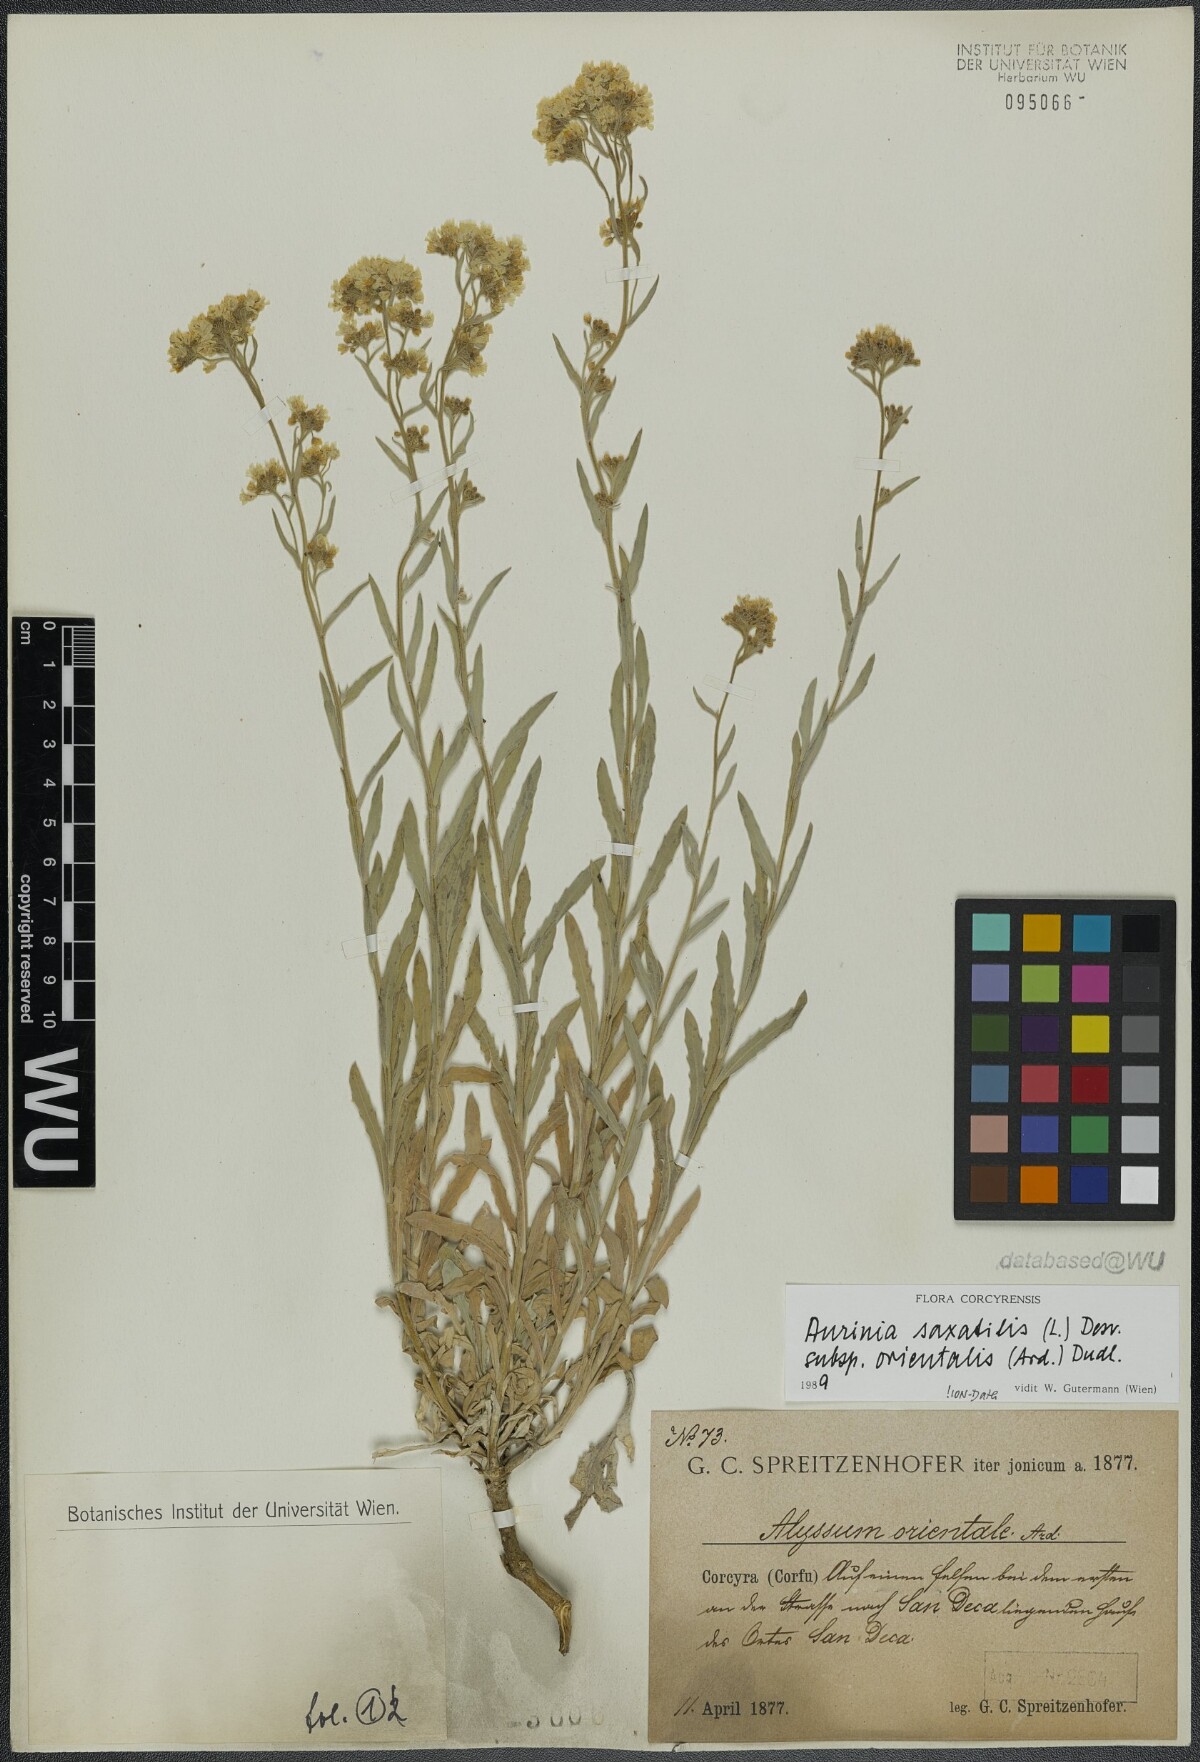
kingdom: Plantae
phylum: Tracheophyta
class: Magnoliopsida
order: Brassicales
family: Brassicaceae
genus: Aurinia
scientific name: Aurinia saxatilis
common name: Golden-tuft alyssum
